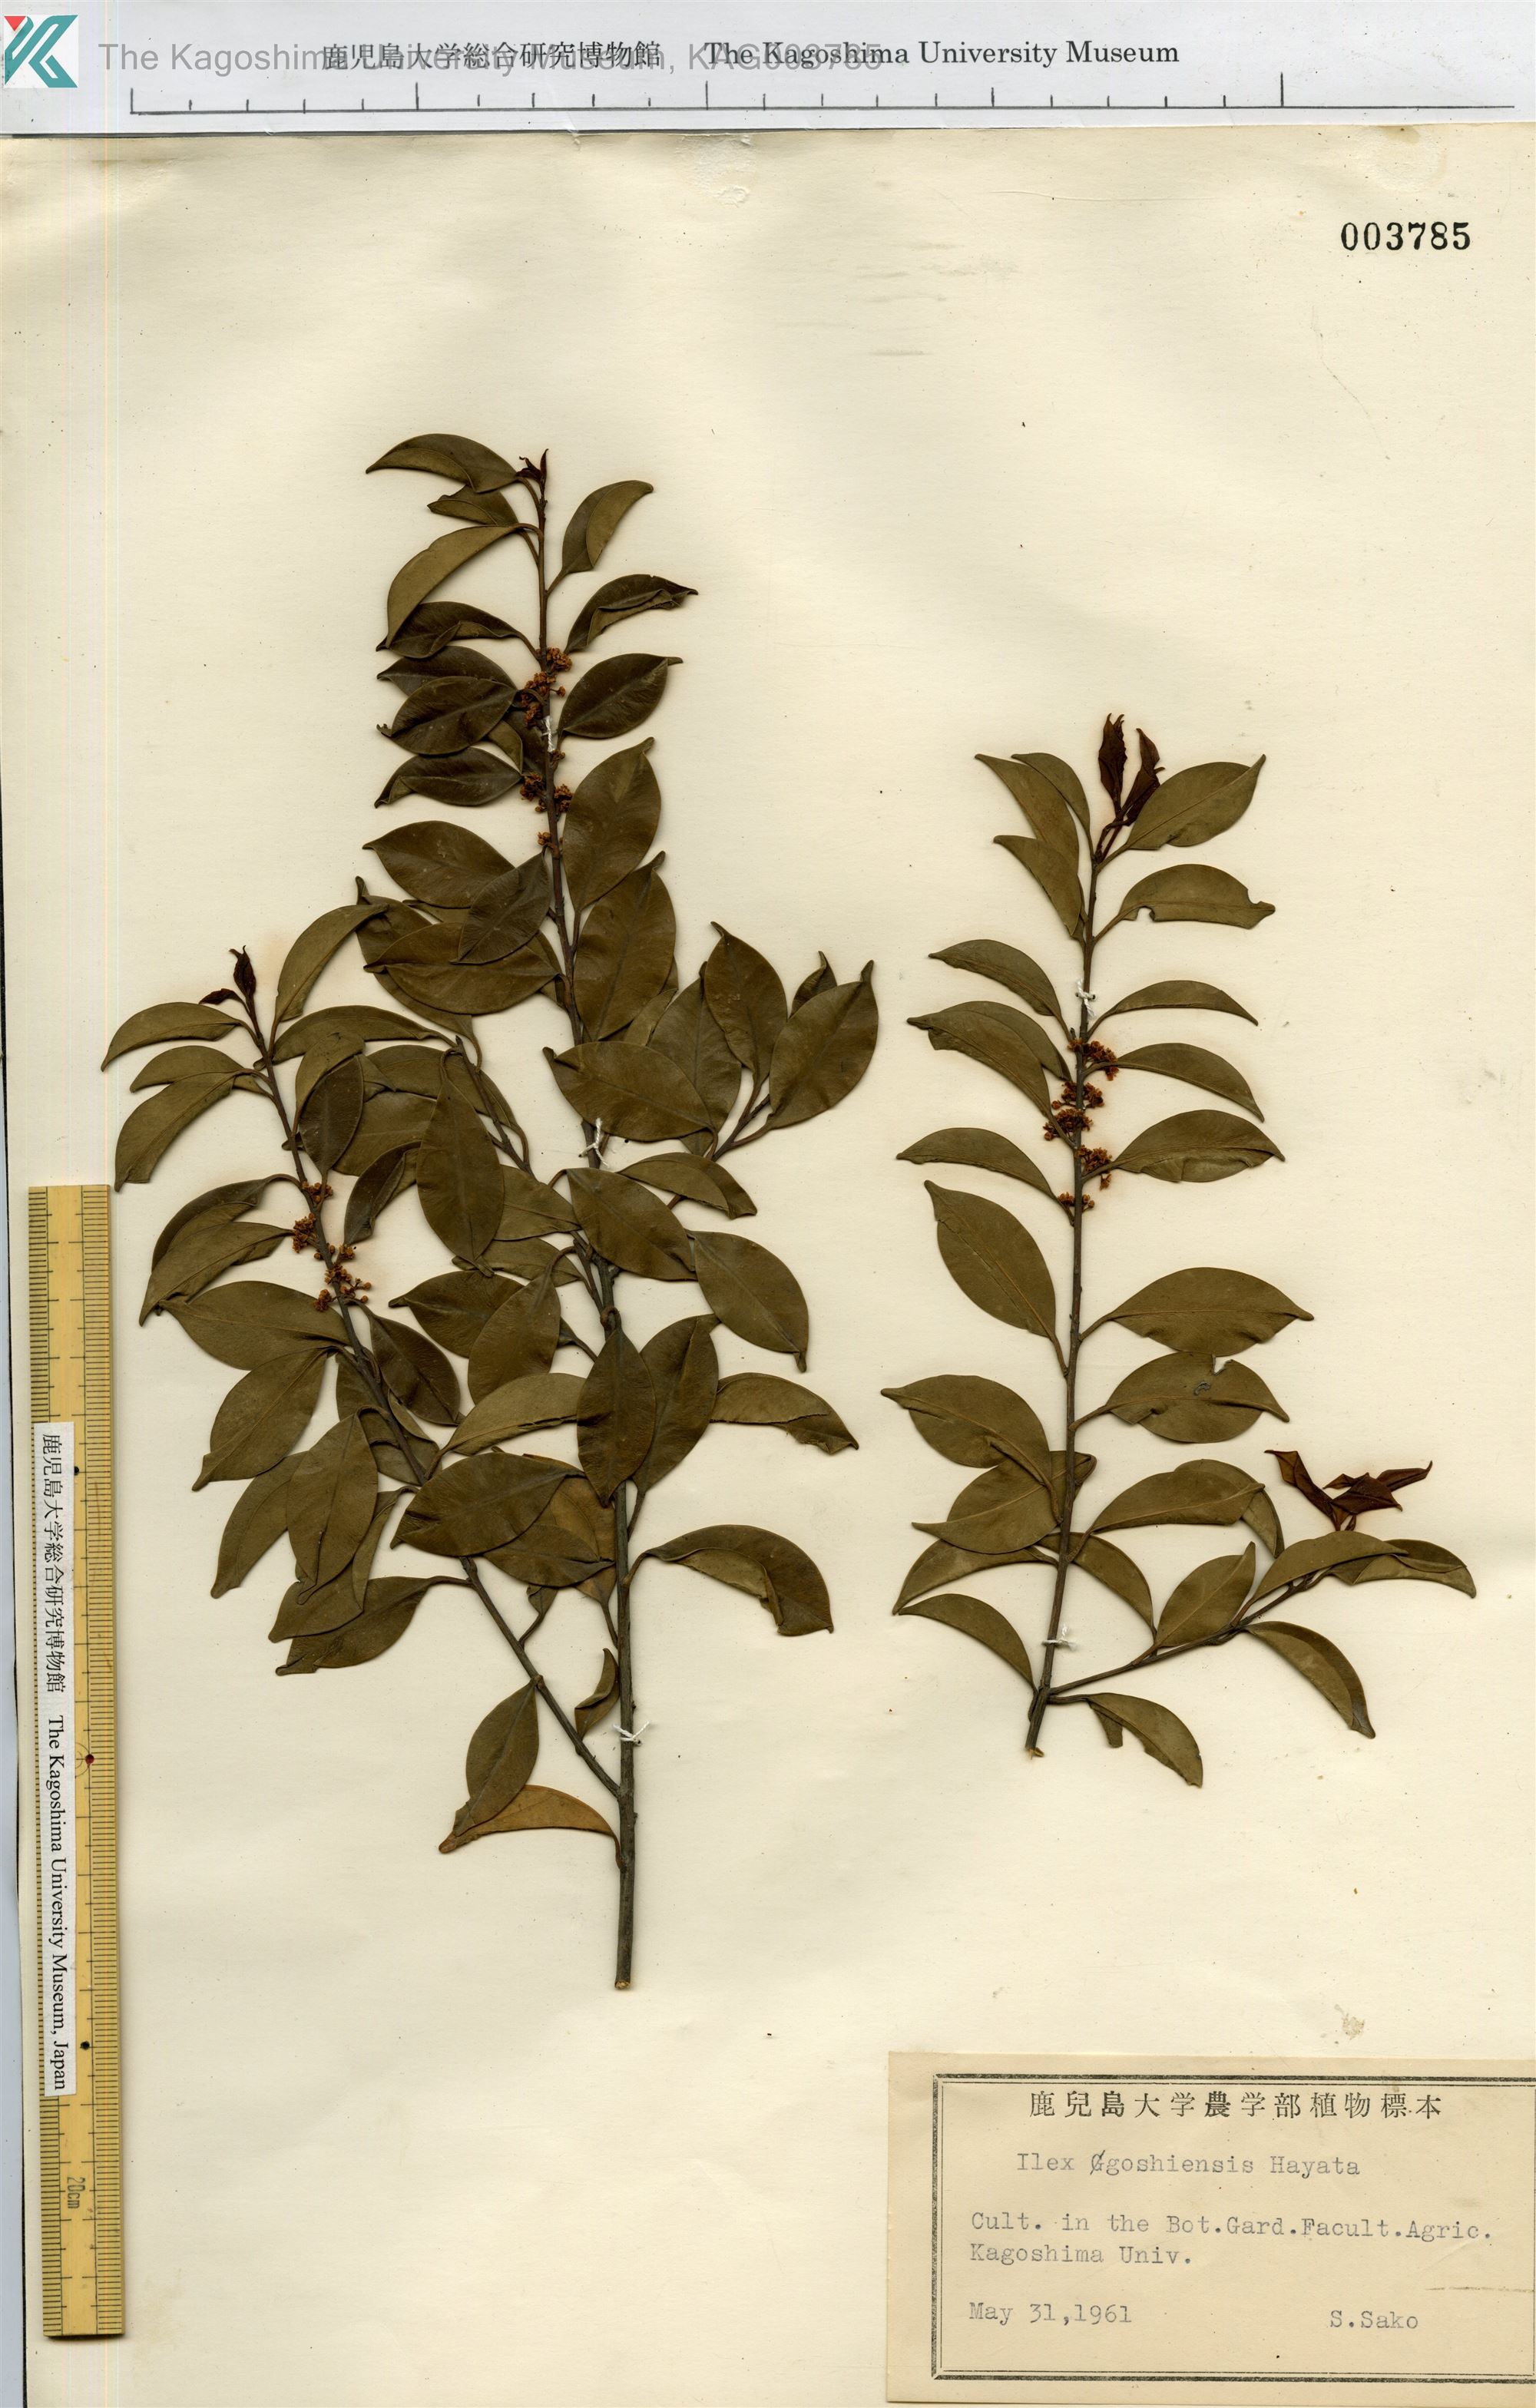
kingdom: Plantae
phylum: Tracheophyta
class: Magnoliopsida
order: Aquifoliales
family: Aquifoliaceae
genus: Ilex
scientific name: Ilex goshiensis
